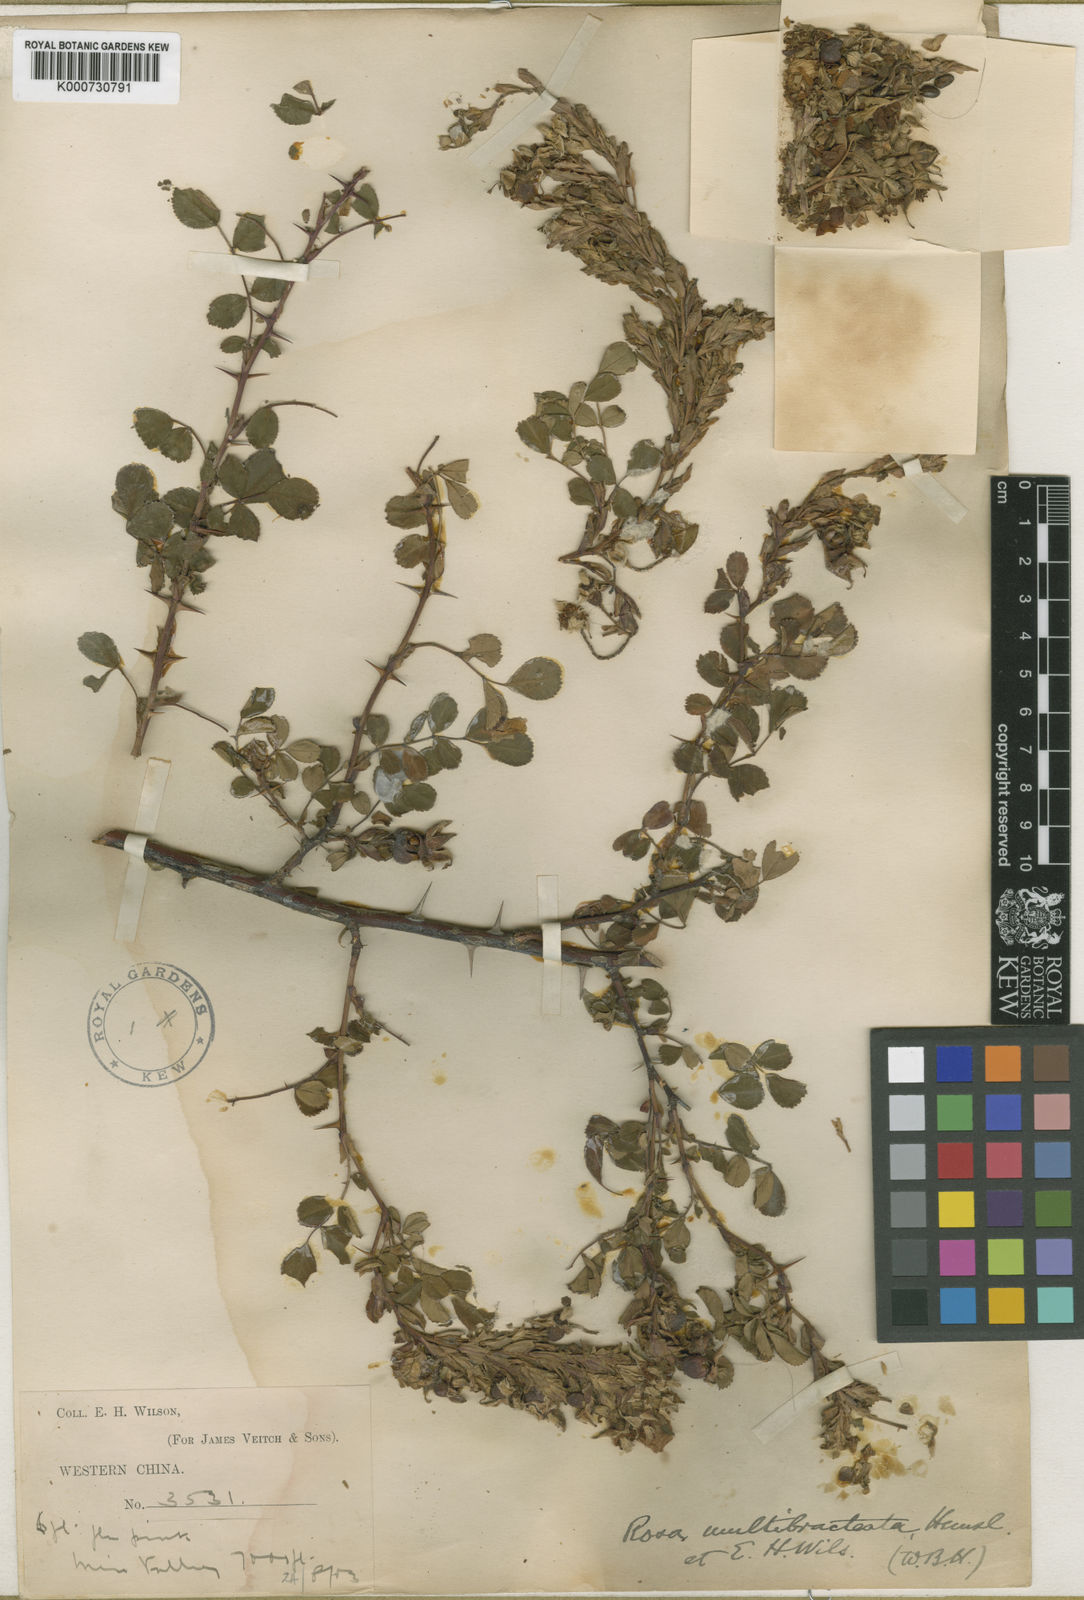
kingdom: Plantae
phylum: Tracheophyta
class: Magnoliopsida
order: Rosales
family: Rosaceae
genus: Rosa
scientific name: Rosa multibracteata
